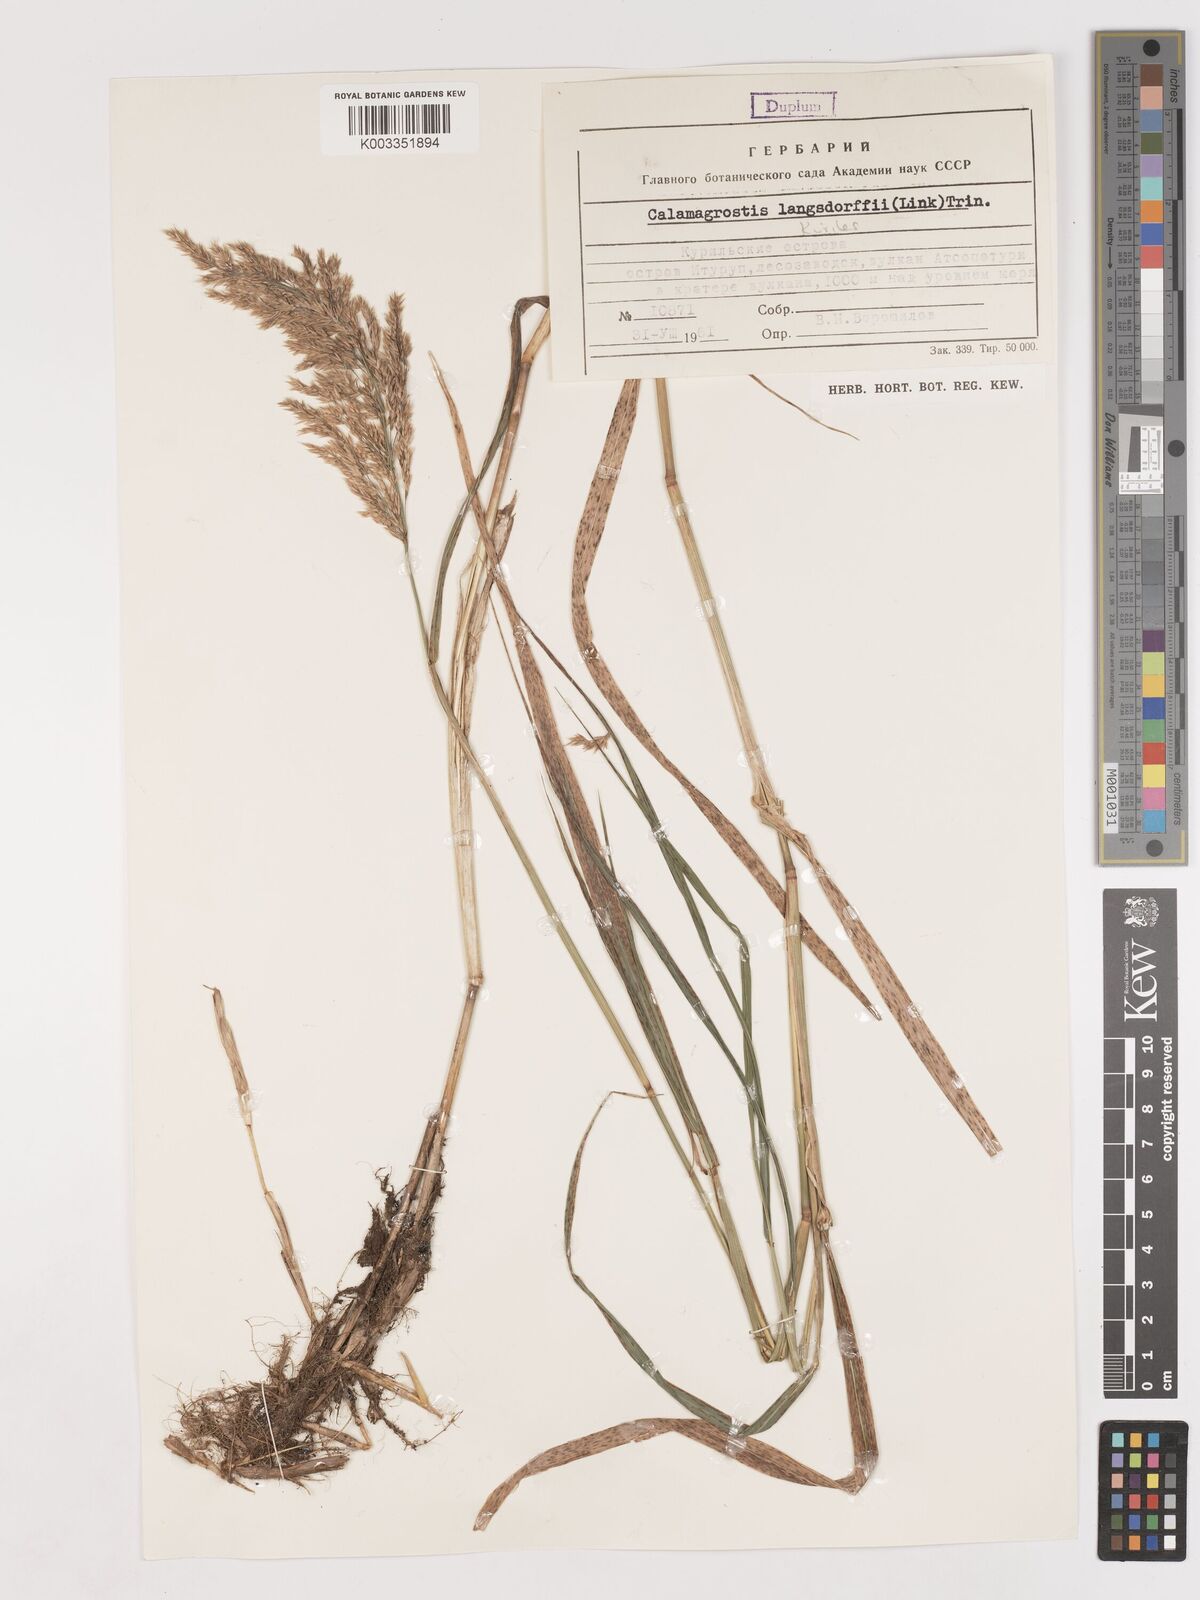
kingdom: Plantae
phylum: Tracheophyta
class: Liliopsida
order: Poales
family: Poaceae
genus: Calamagrostis
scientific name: Calamagrostis purpurea
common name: Scandinavian small-reed
